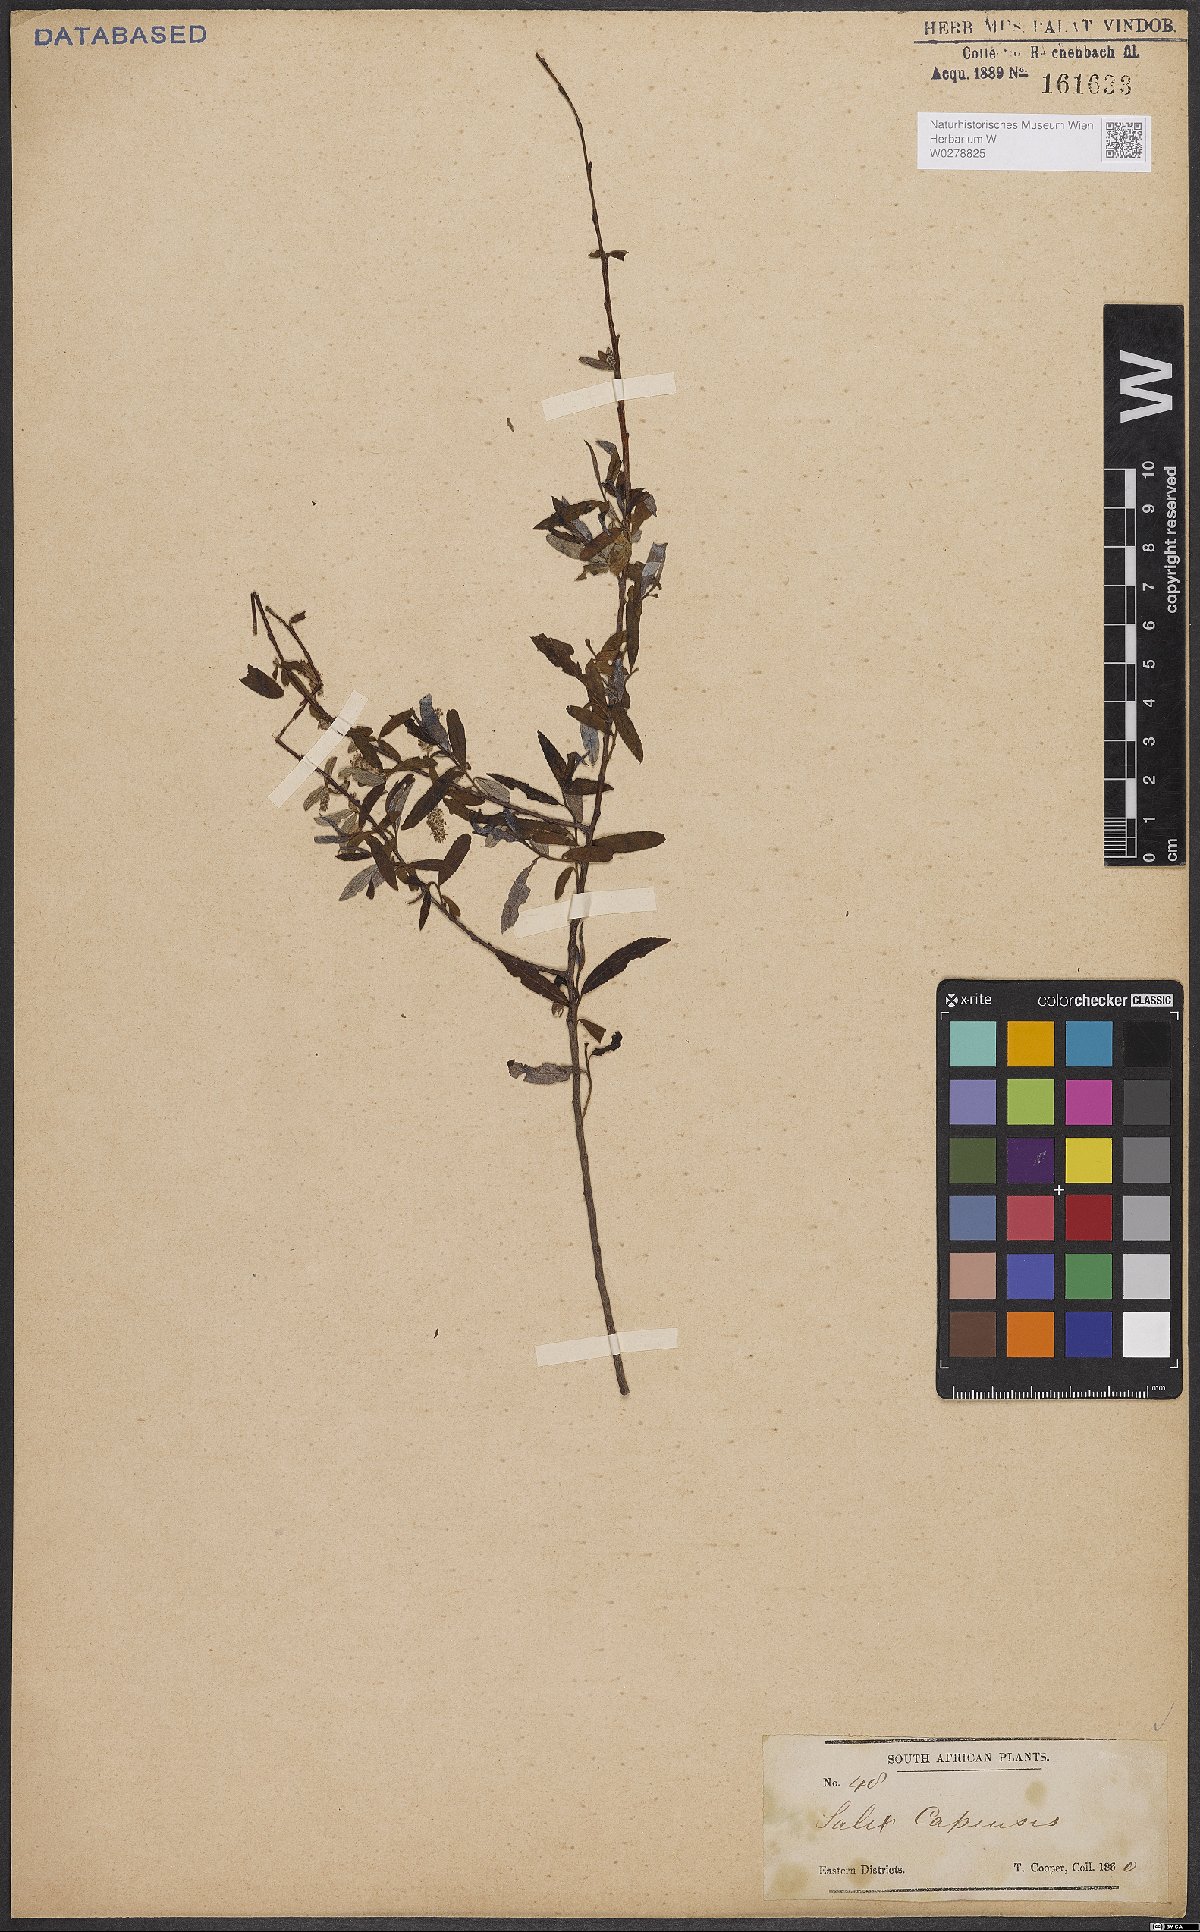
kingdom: Plantae
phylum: Tracheophyta
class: Magnoliopsida
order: Malpighiales
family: Salicaceae
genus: Salix
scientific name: Salix mucronata
